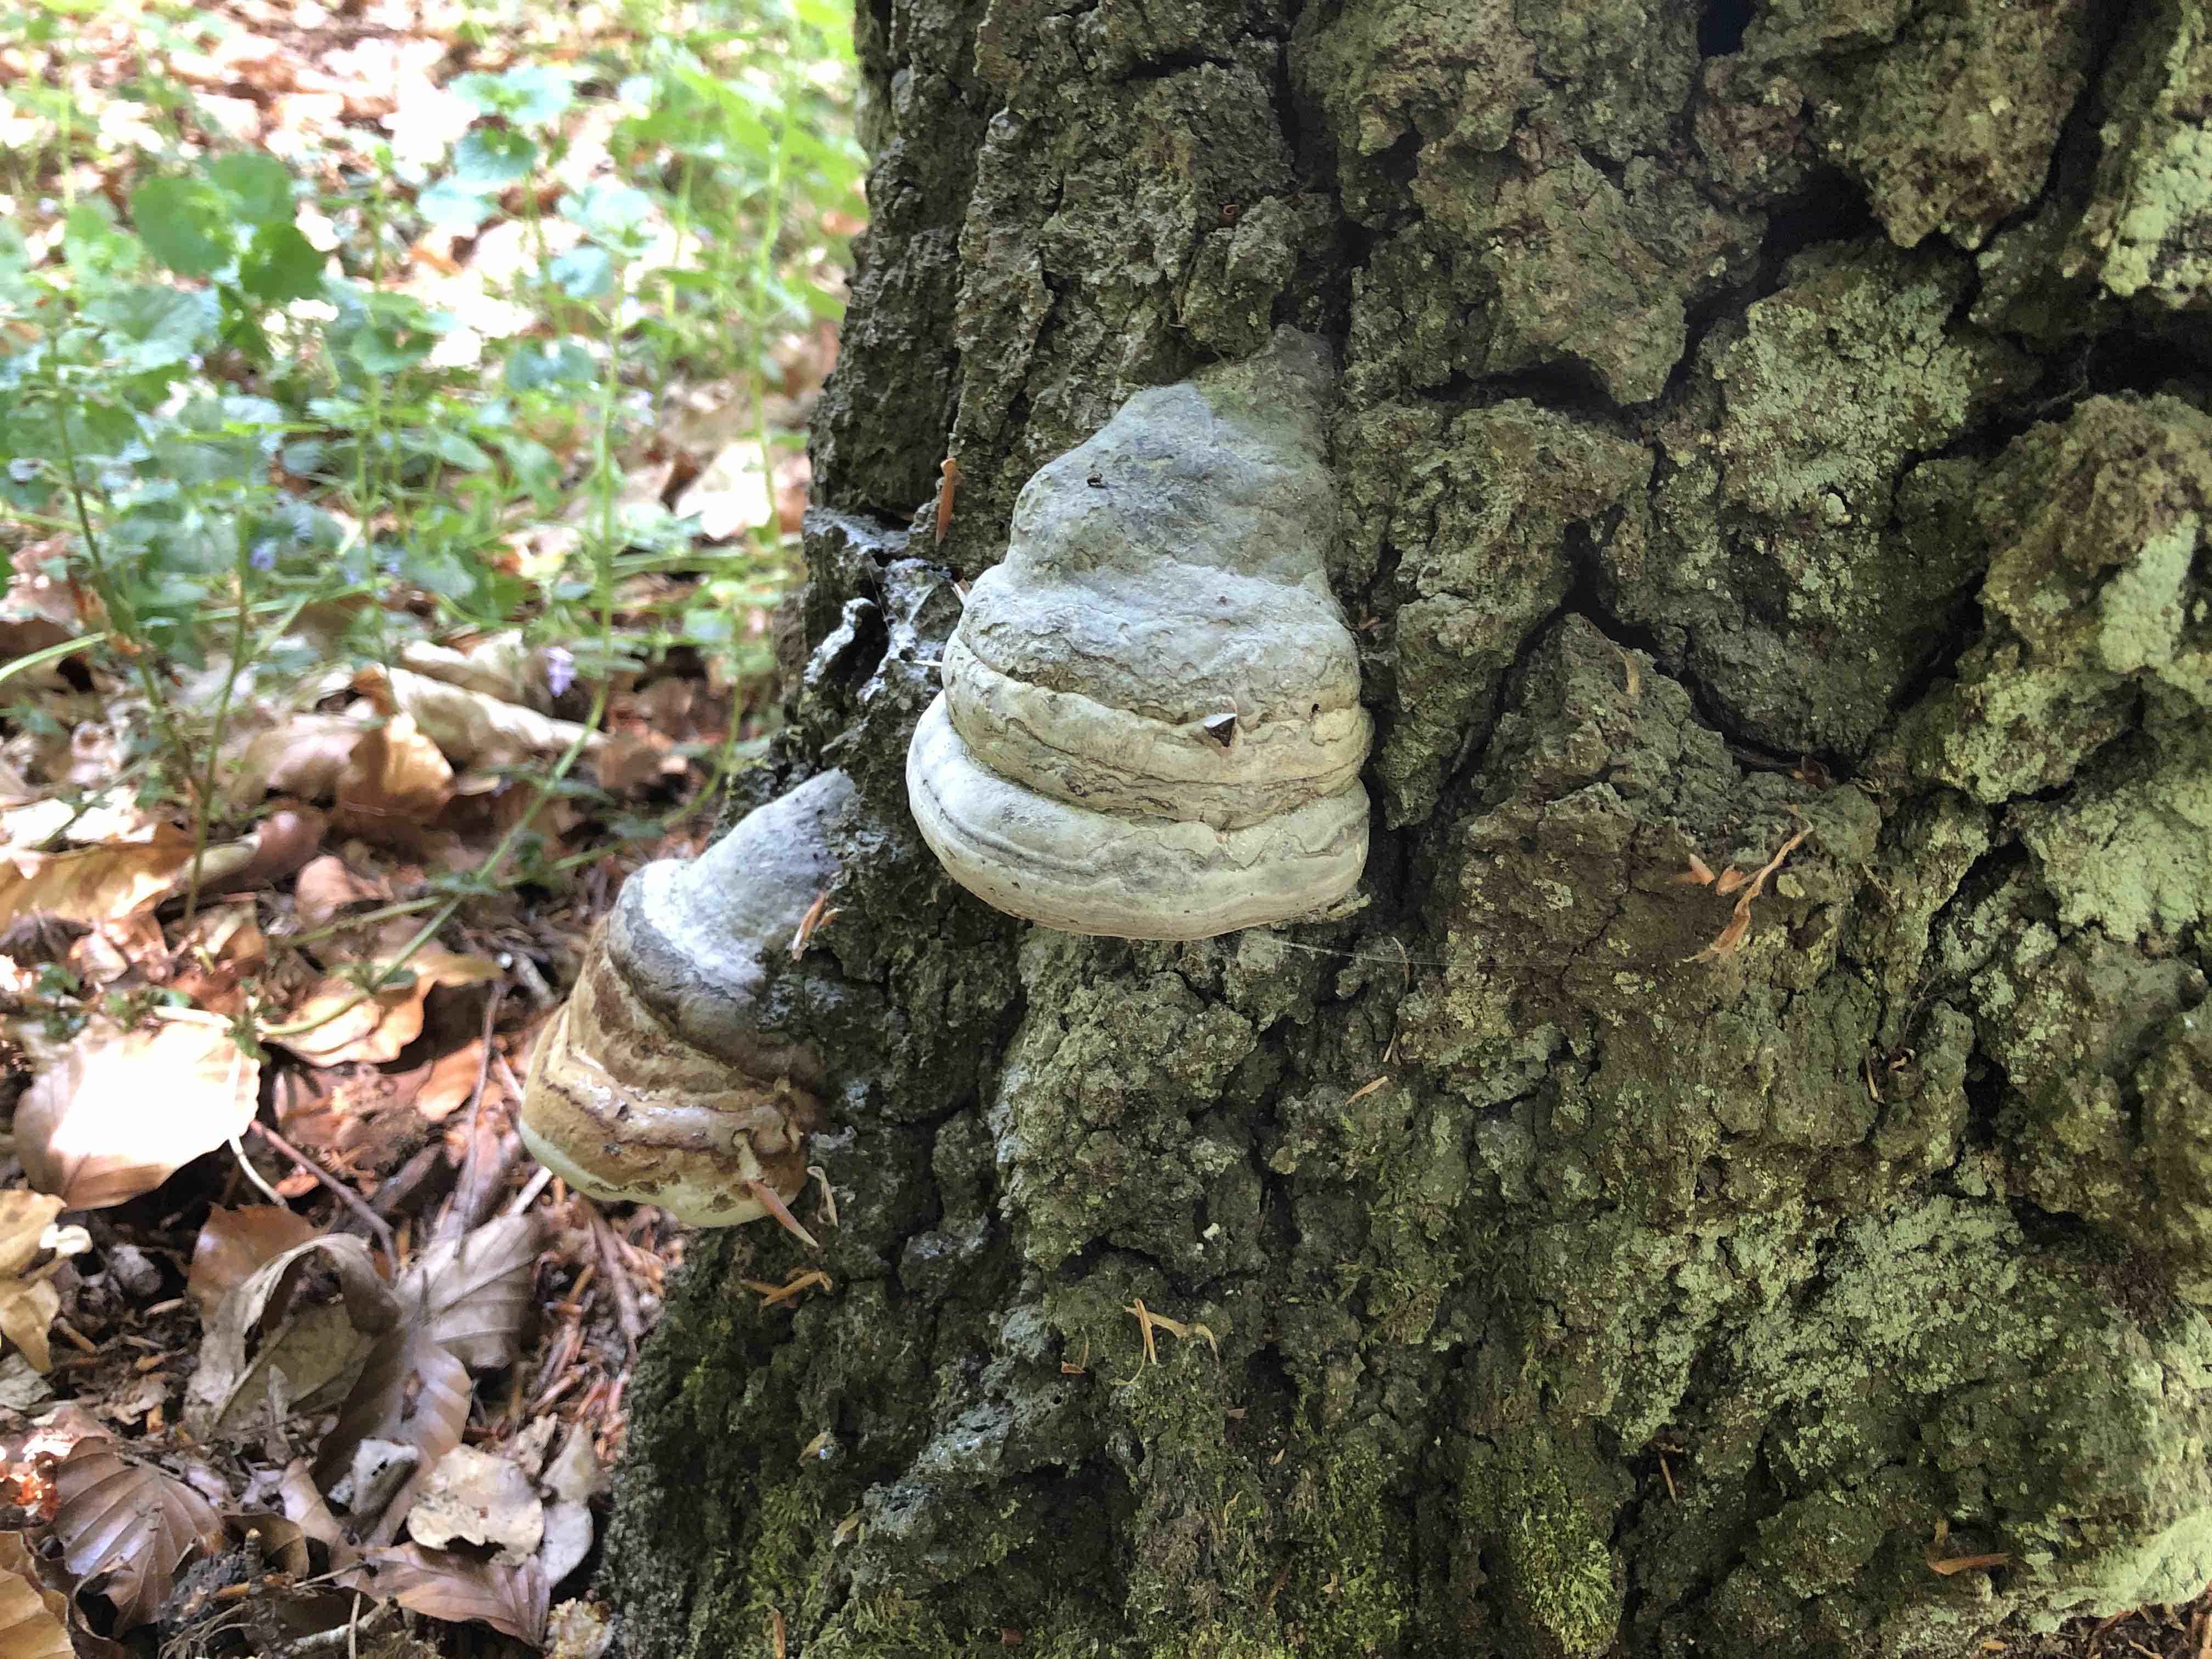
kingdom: Fungi
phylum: Basidiomycota
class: Agaricomycetes
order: Polyporales
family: Polyporaceae
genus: Fomes
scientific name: Fomes fomentarius
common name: tøndersvamp
